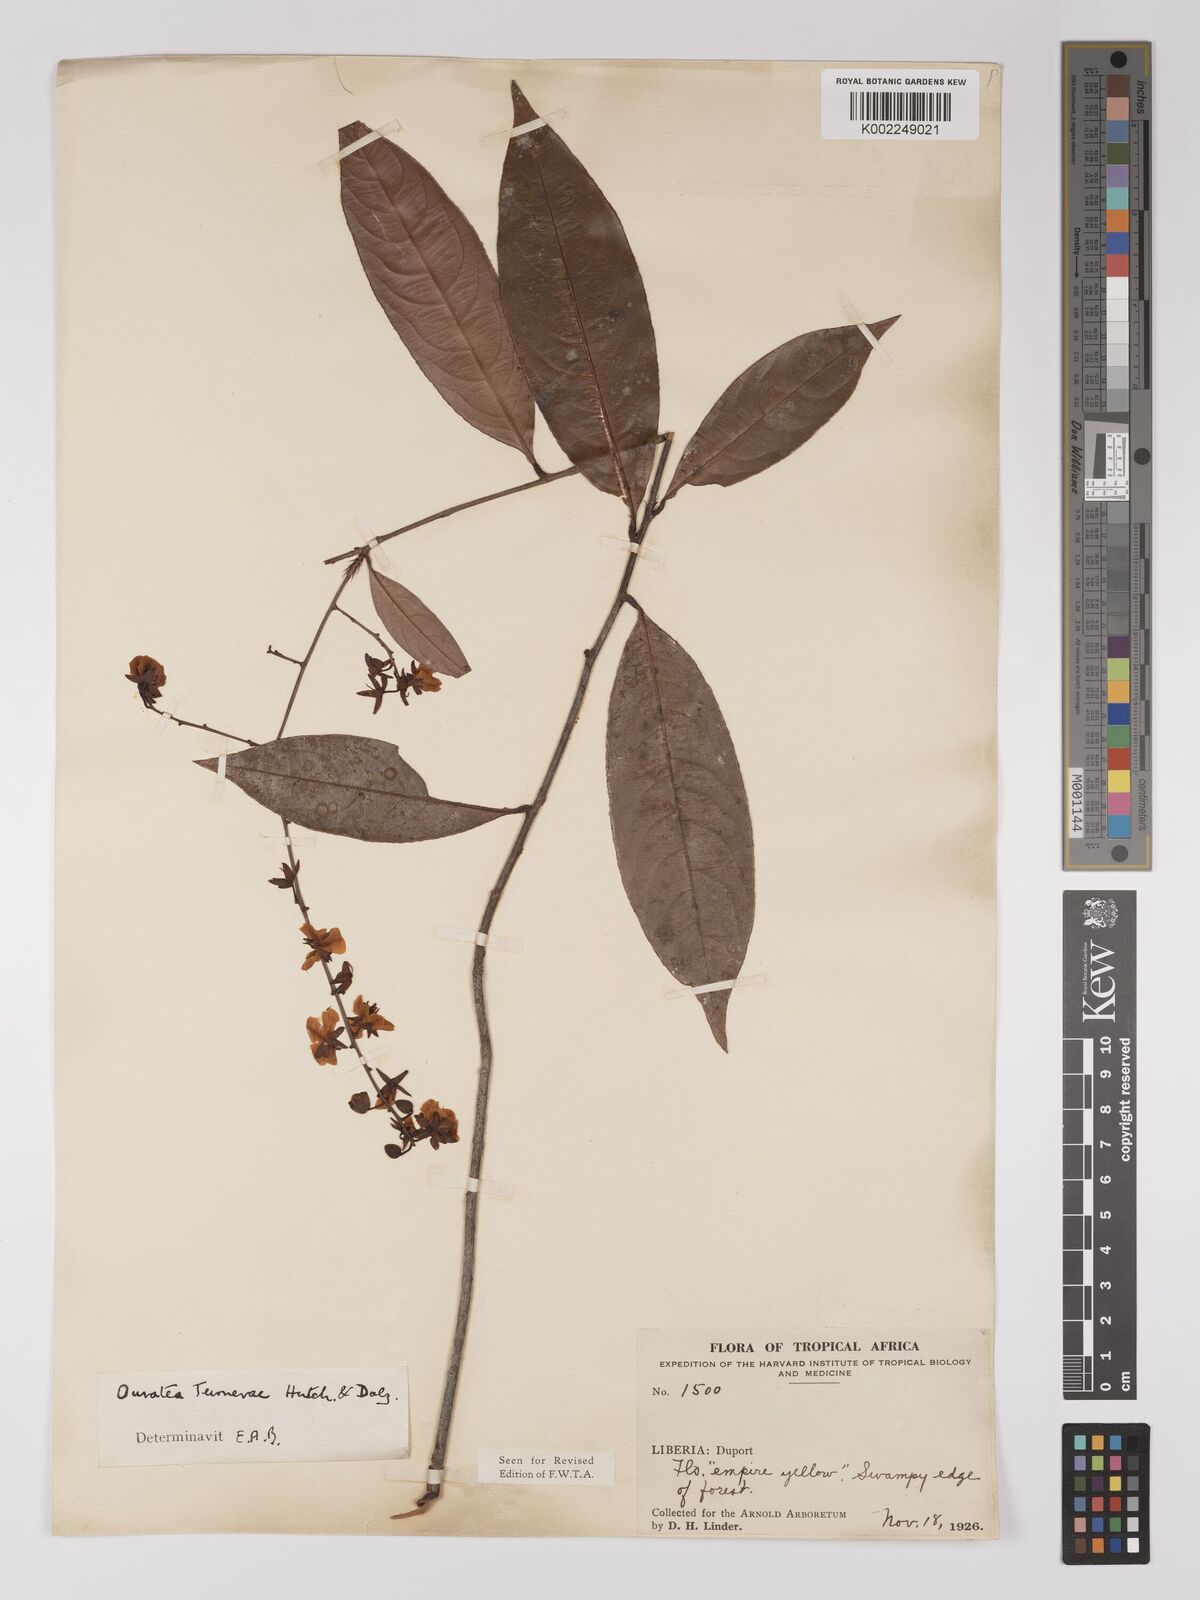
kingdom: Plantae
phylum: Tracheophyta
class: Magnoliopsida
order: Malpighiales
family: Ochnaceae
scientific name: Ochnaceae
